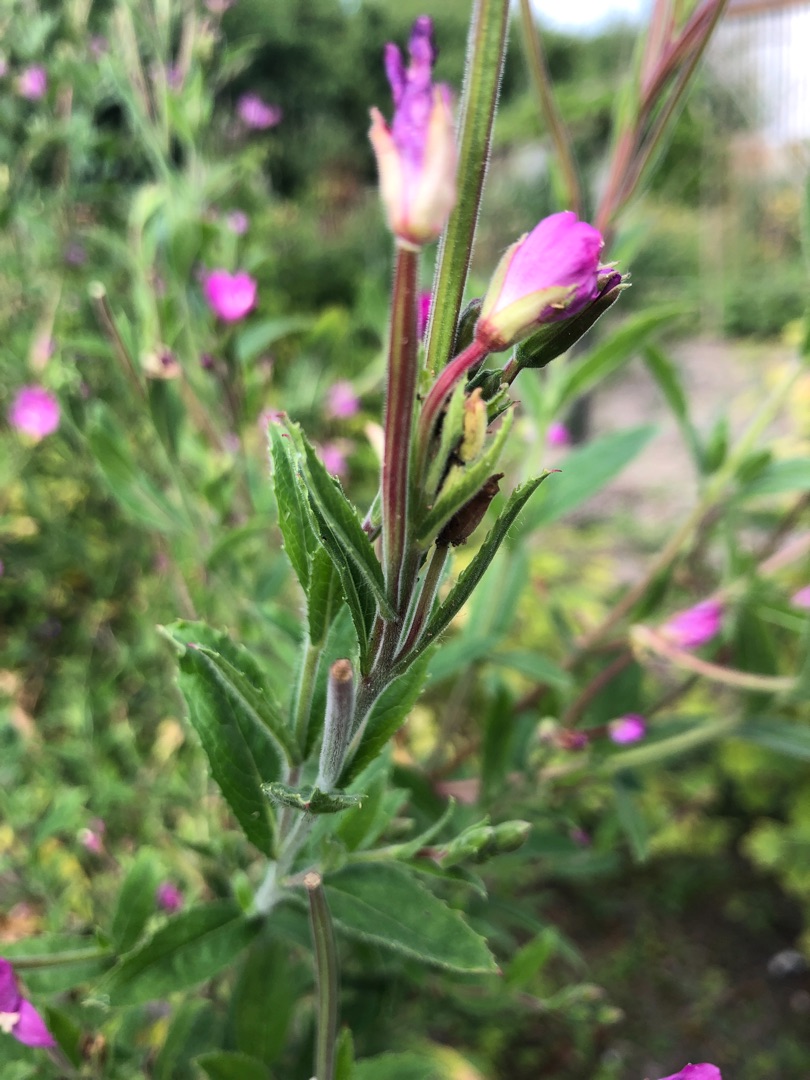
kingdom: Plantae
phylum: Tracheophyta
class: Magnoliopsida
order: Myrtales
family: Onagraceae
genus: Epilobium
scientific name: Epilobium hirsutum
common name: Lådden dueurt
